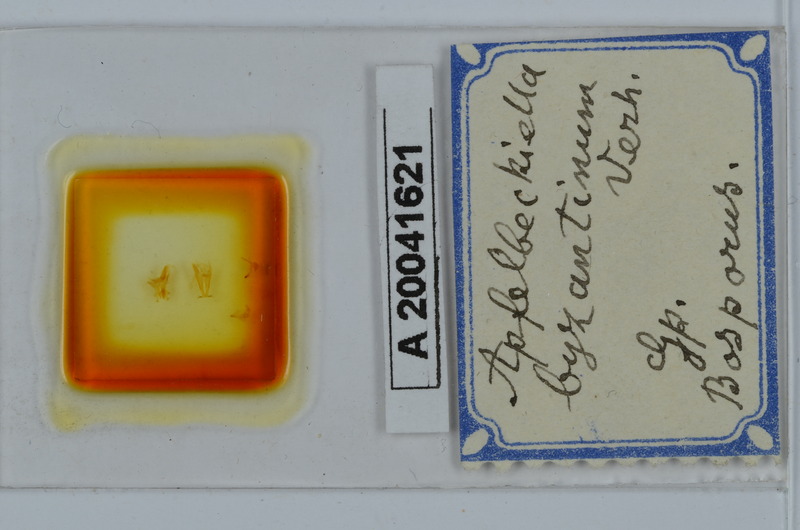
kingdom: Animalia
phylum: Arthropoda
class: Diplopoda
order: Julida
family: Julidae
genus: Apfelbeckiella
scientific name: Apfelbeckiella byzantina
